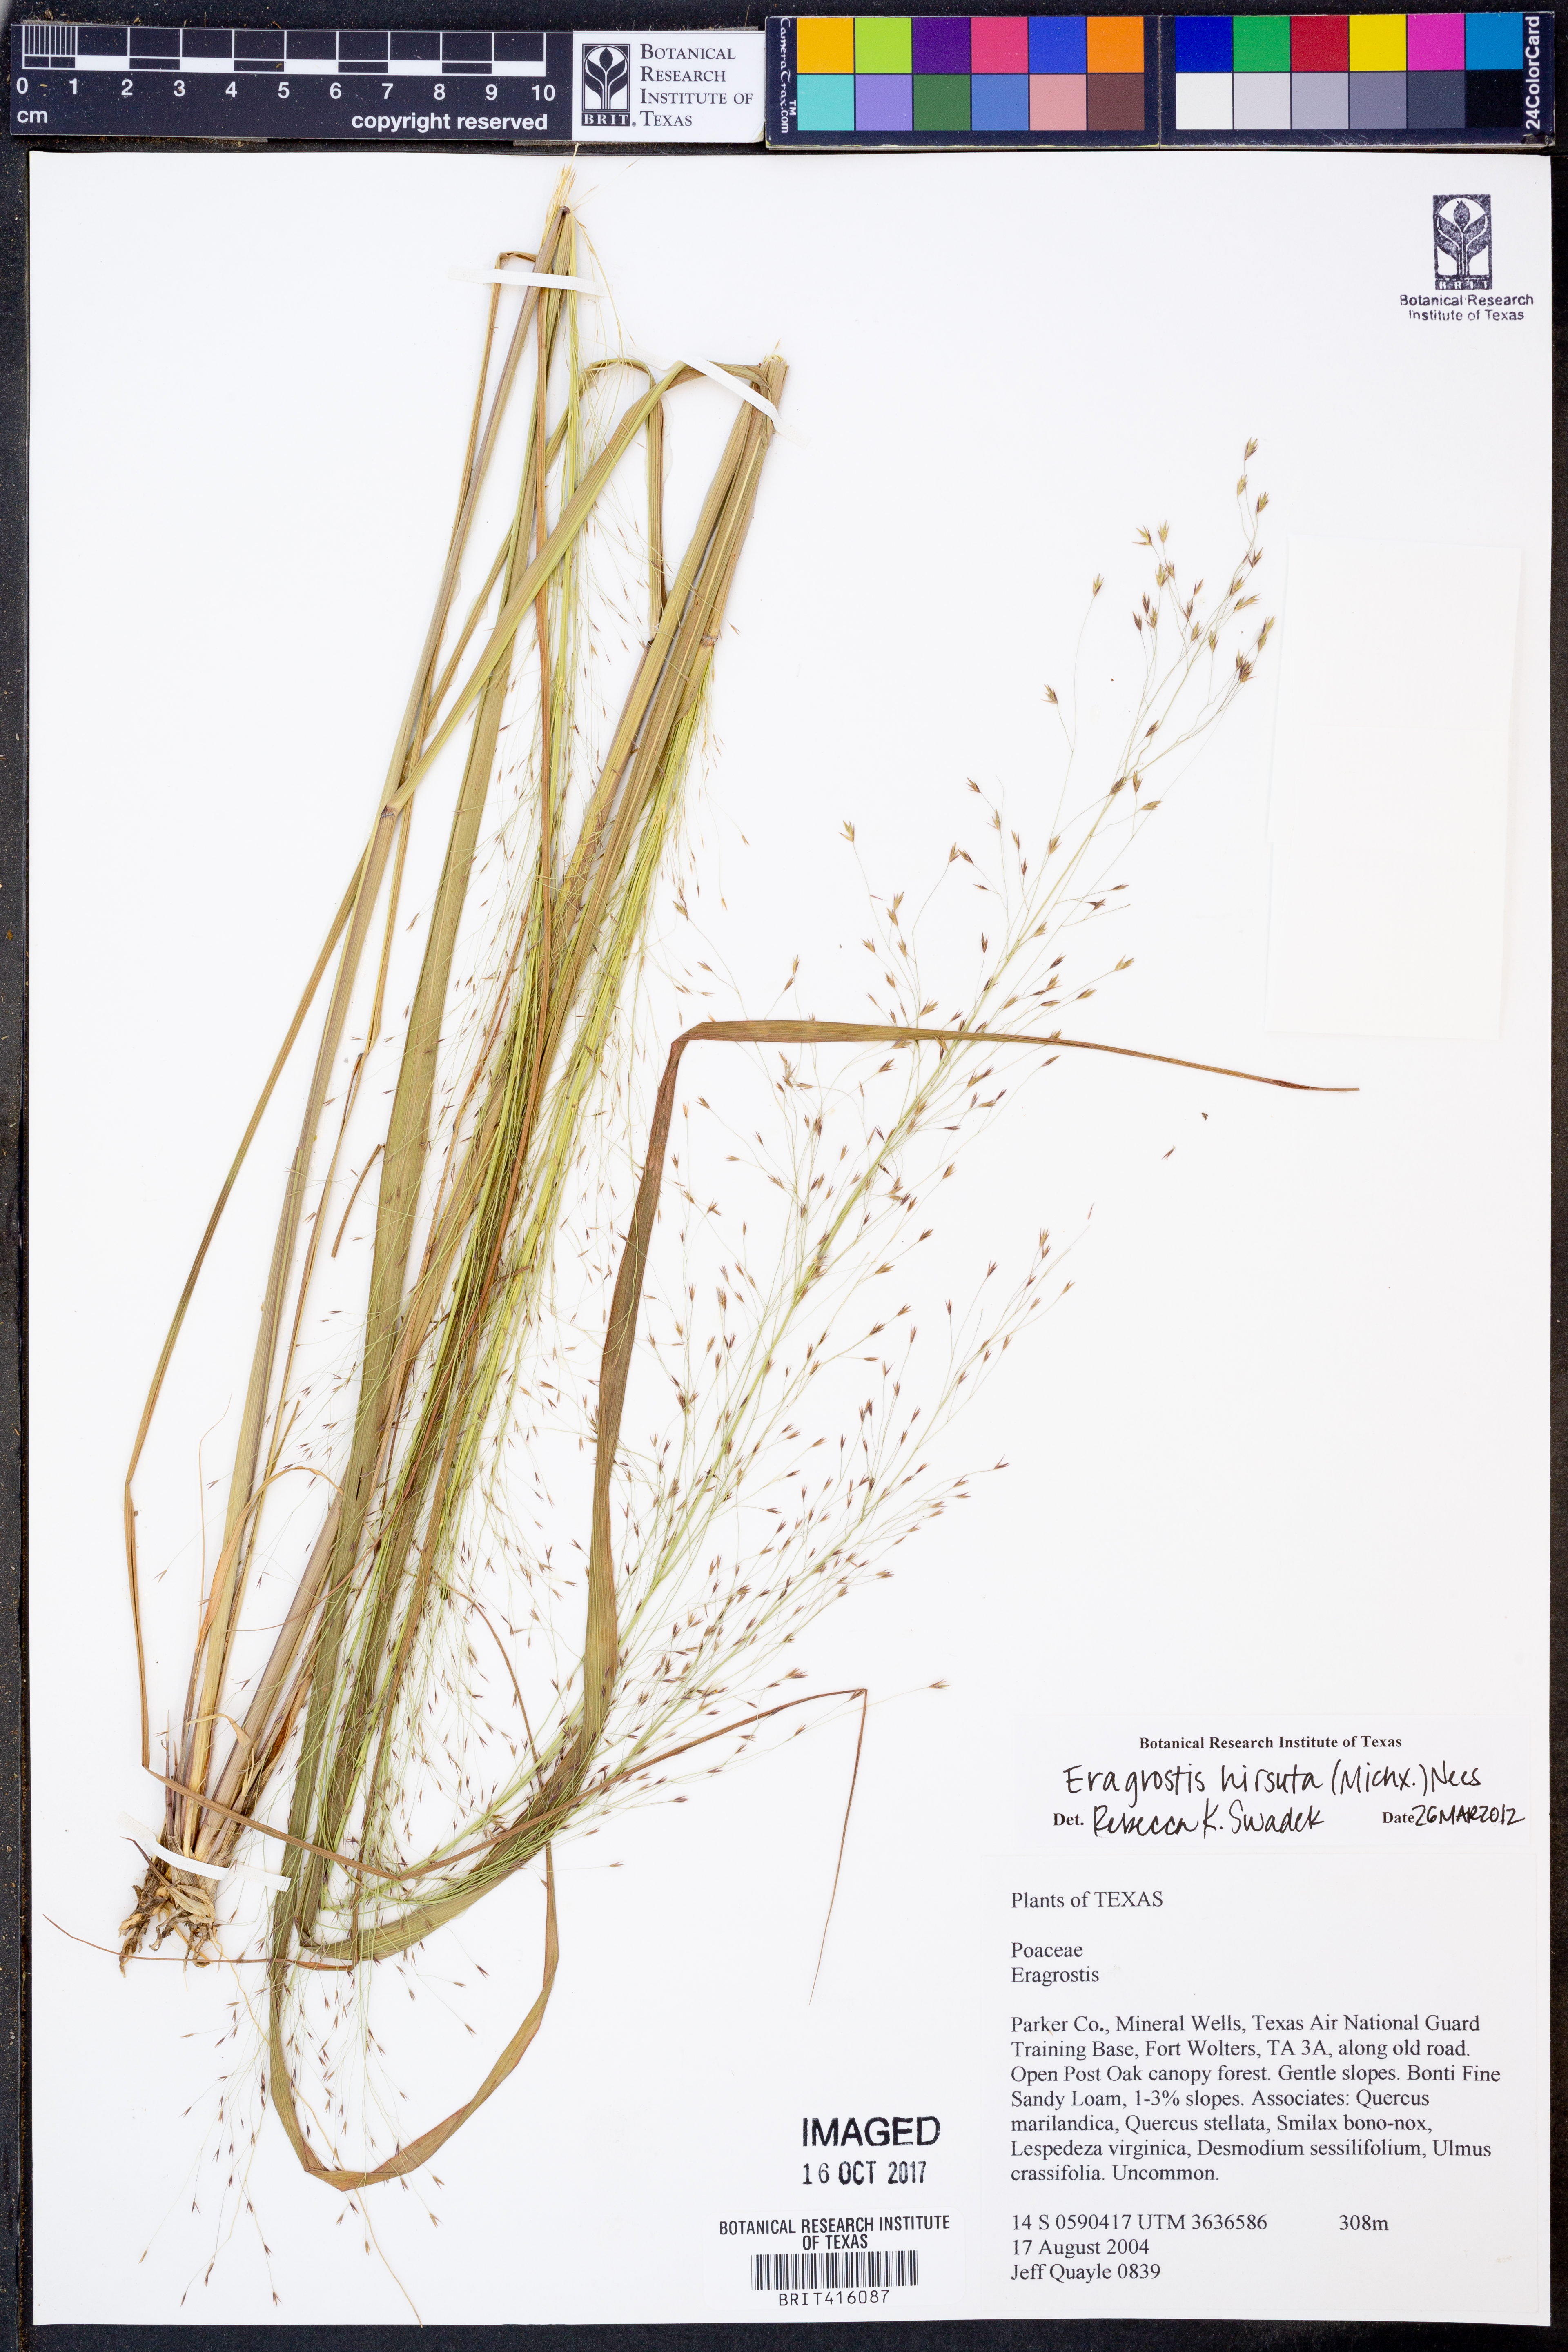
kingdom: Plantae
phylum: Tracheophyta
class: Liliopsida
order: Poales
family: Poaceae
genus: Eragrostis
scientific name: Eragrostis hirsuta
